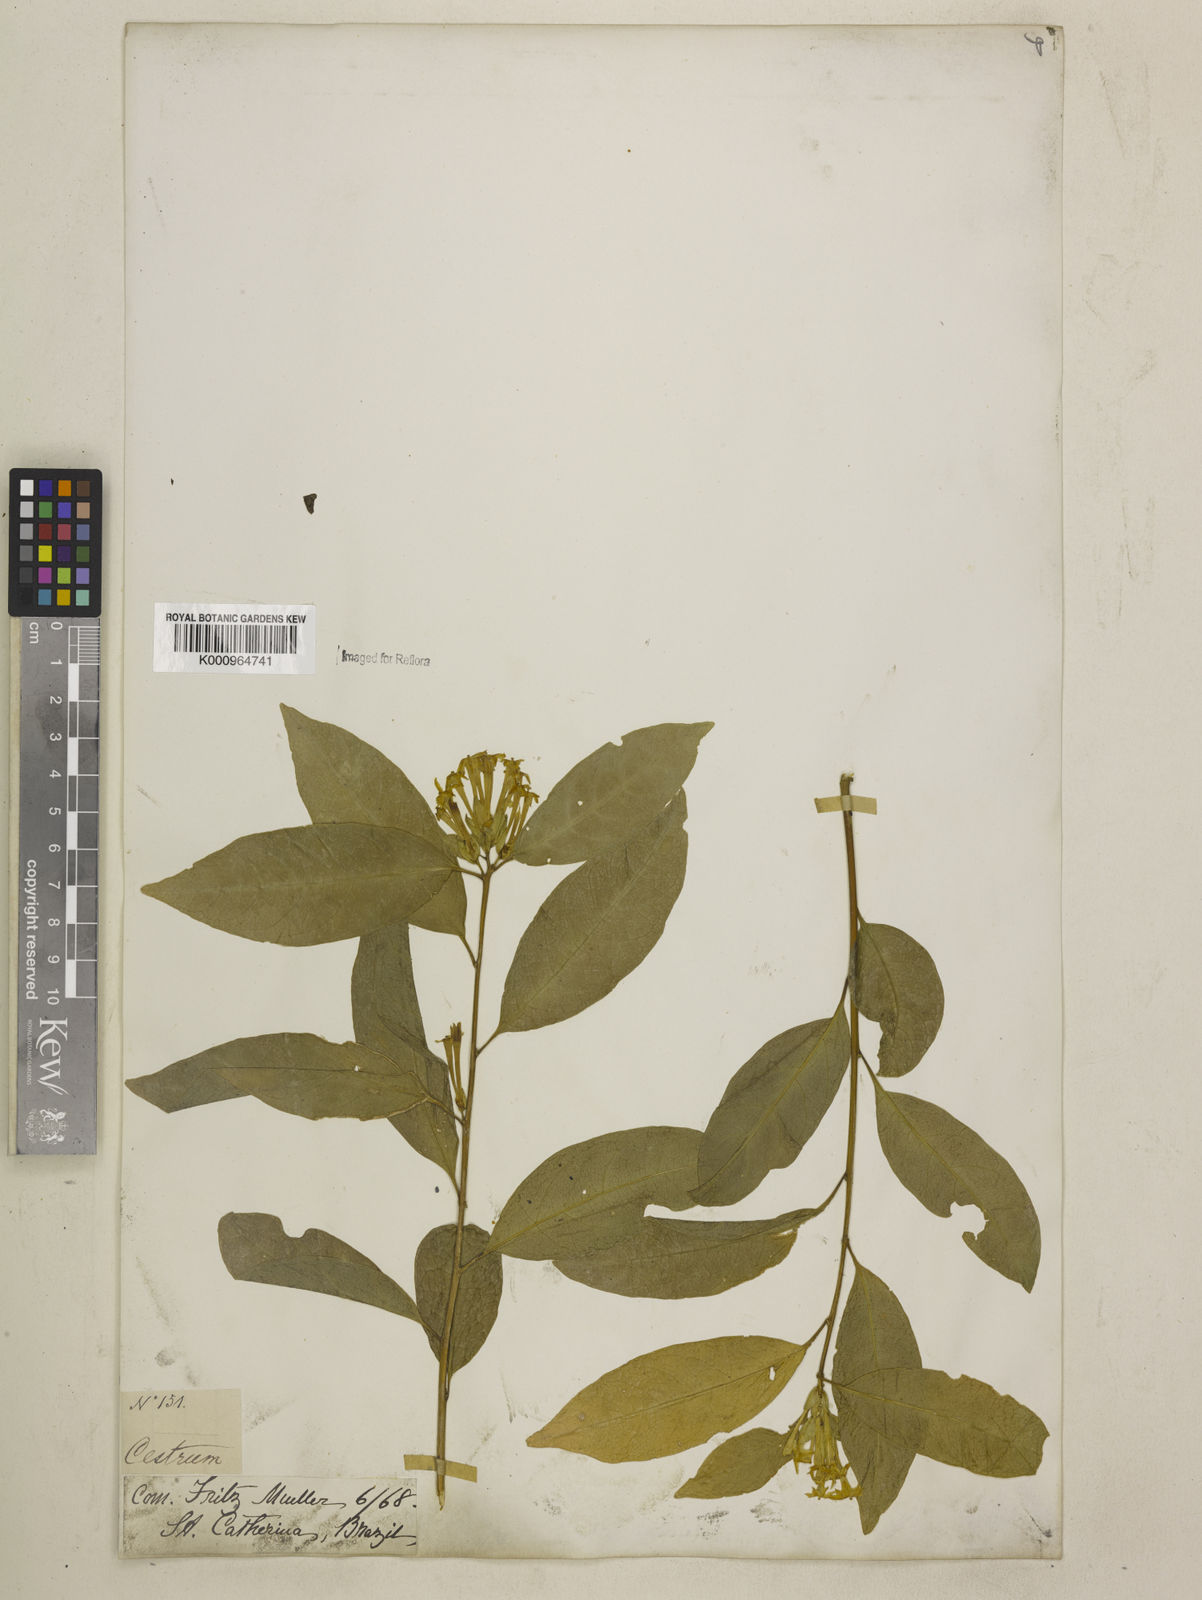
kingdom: Plantae
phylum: Tracheophyta
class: Magnoliopsida
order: Solanales
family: Solanaceae
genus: Cestrum
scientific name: Cestrum gardneri
